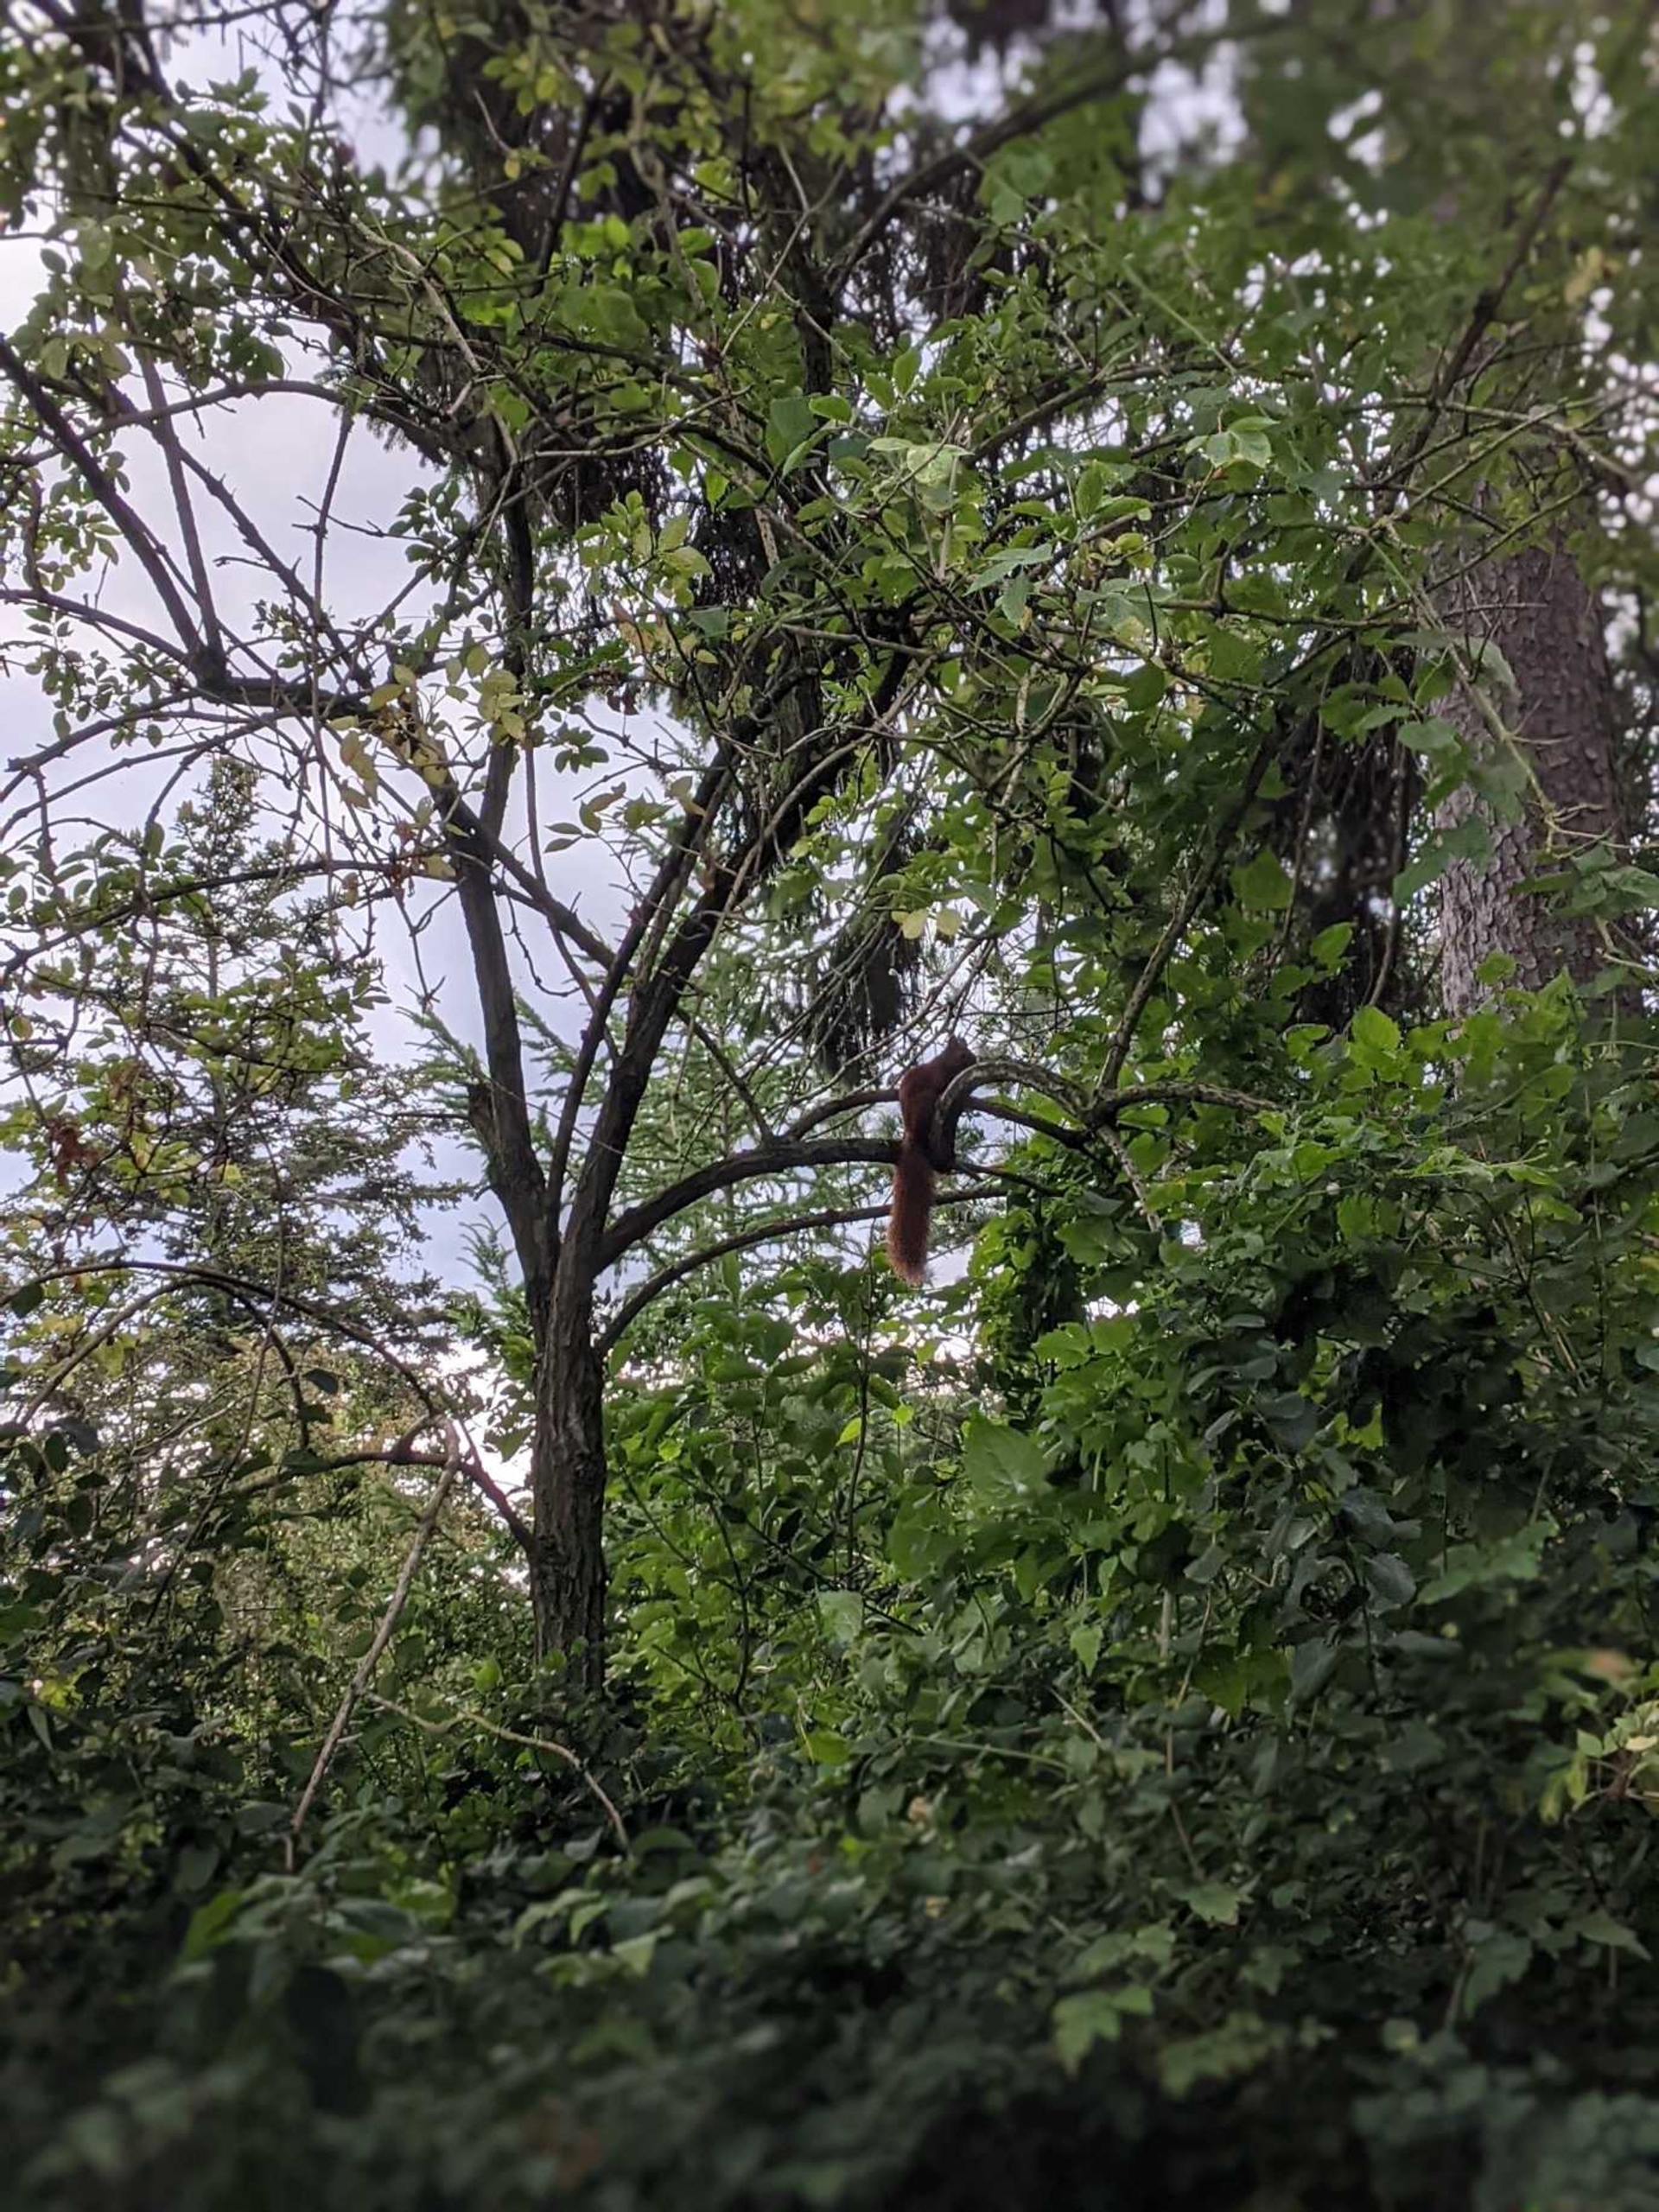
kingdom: Animalia
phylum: Chordata
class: Mammalia
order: Rodentia
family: Sciuridae
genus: Sciurus
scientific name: Sciurus vulgaris
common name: Egern
